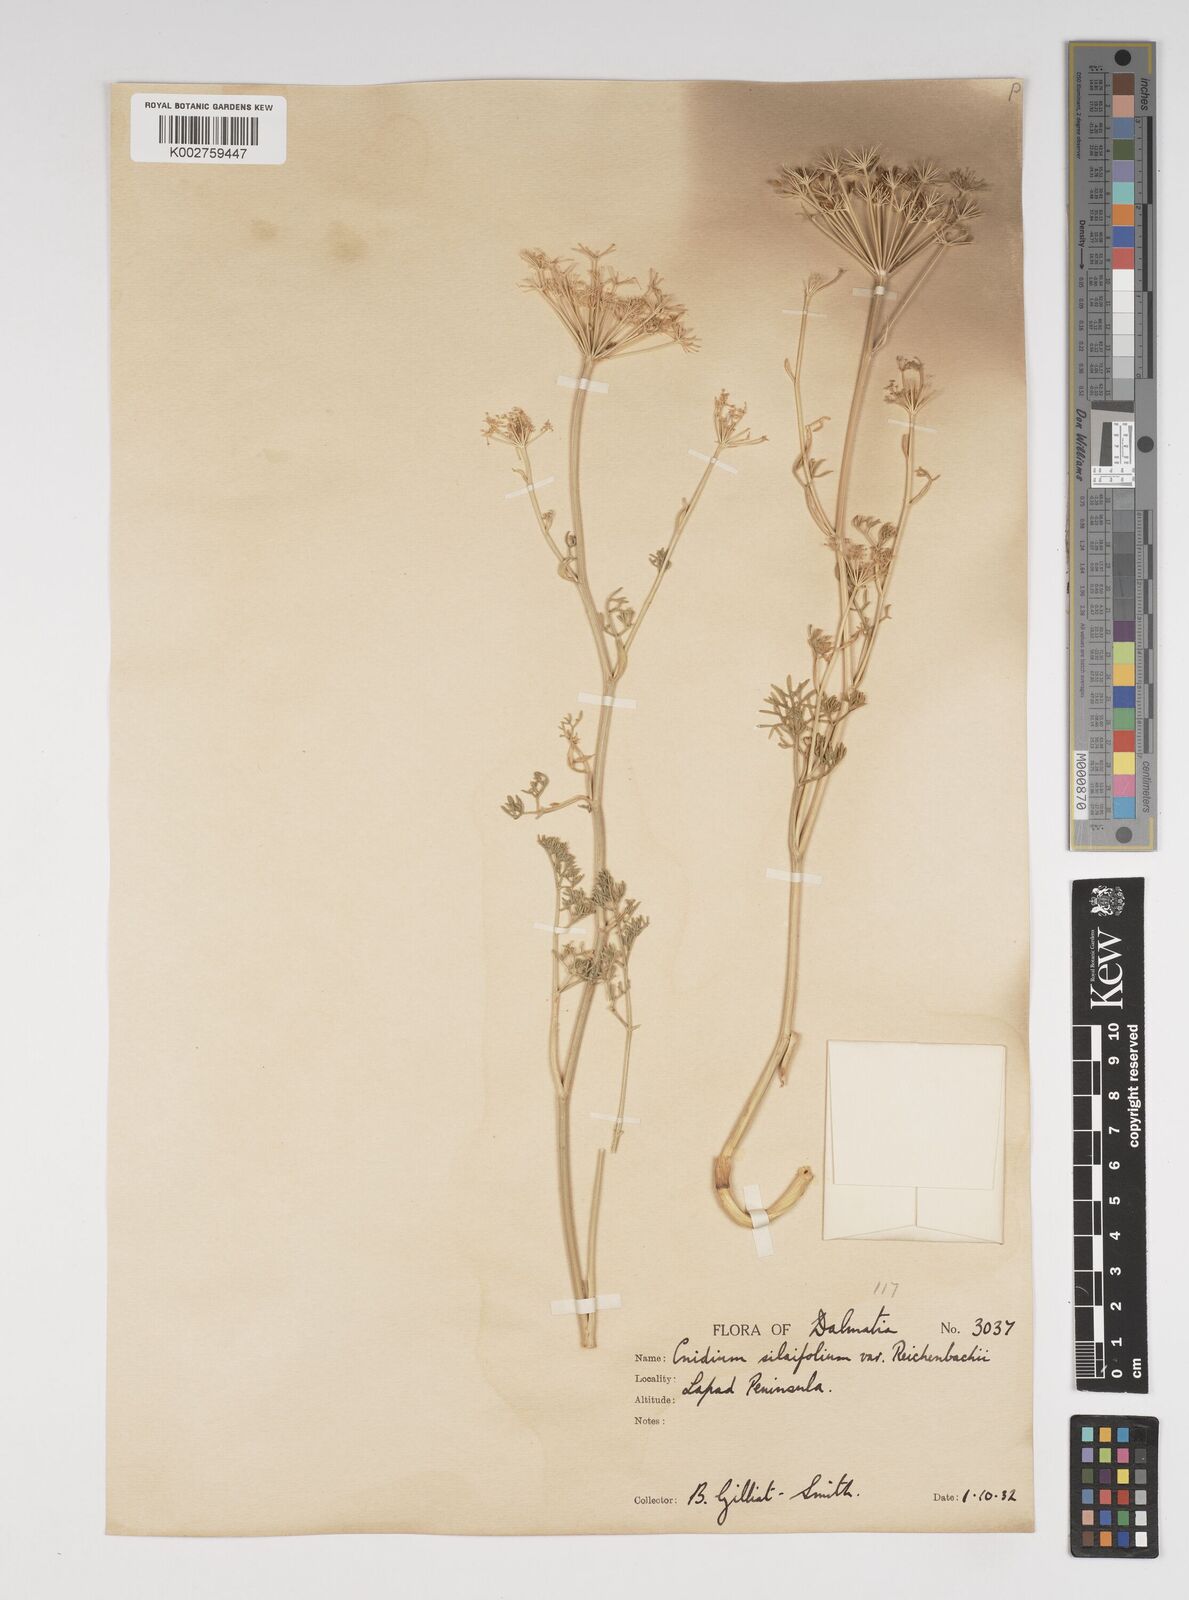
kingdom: Plantae
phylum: Tracheophyta
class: Magnoliopsida
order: Apiales
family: Apiaceae
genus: Selinum
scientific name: Selinum
